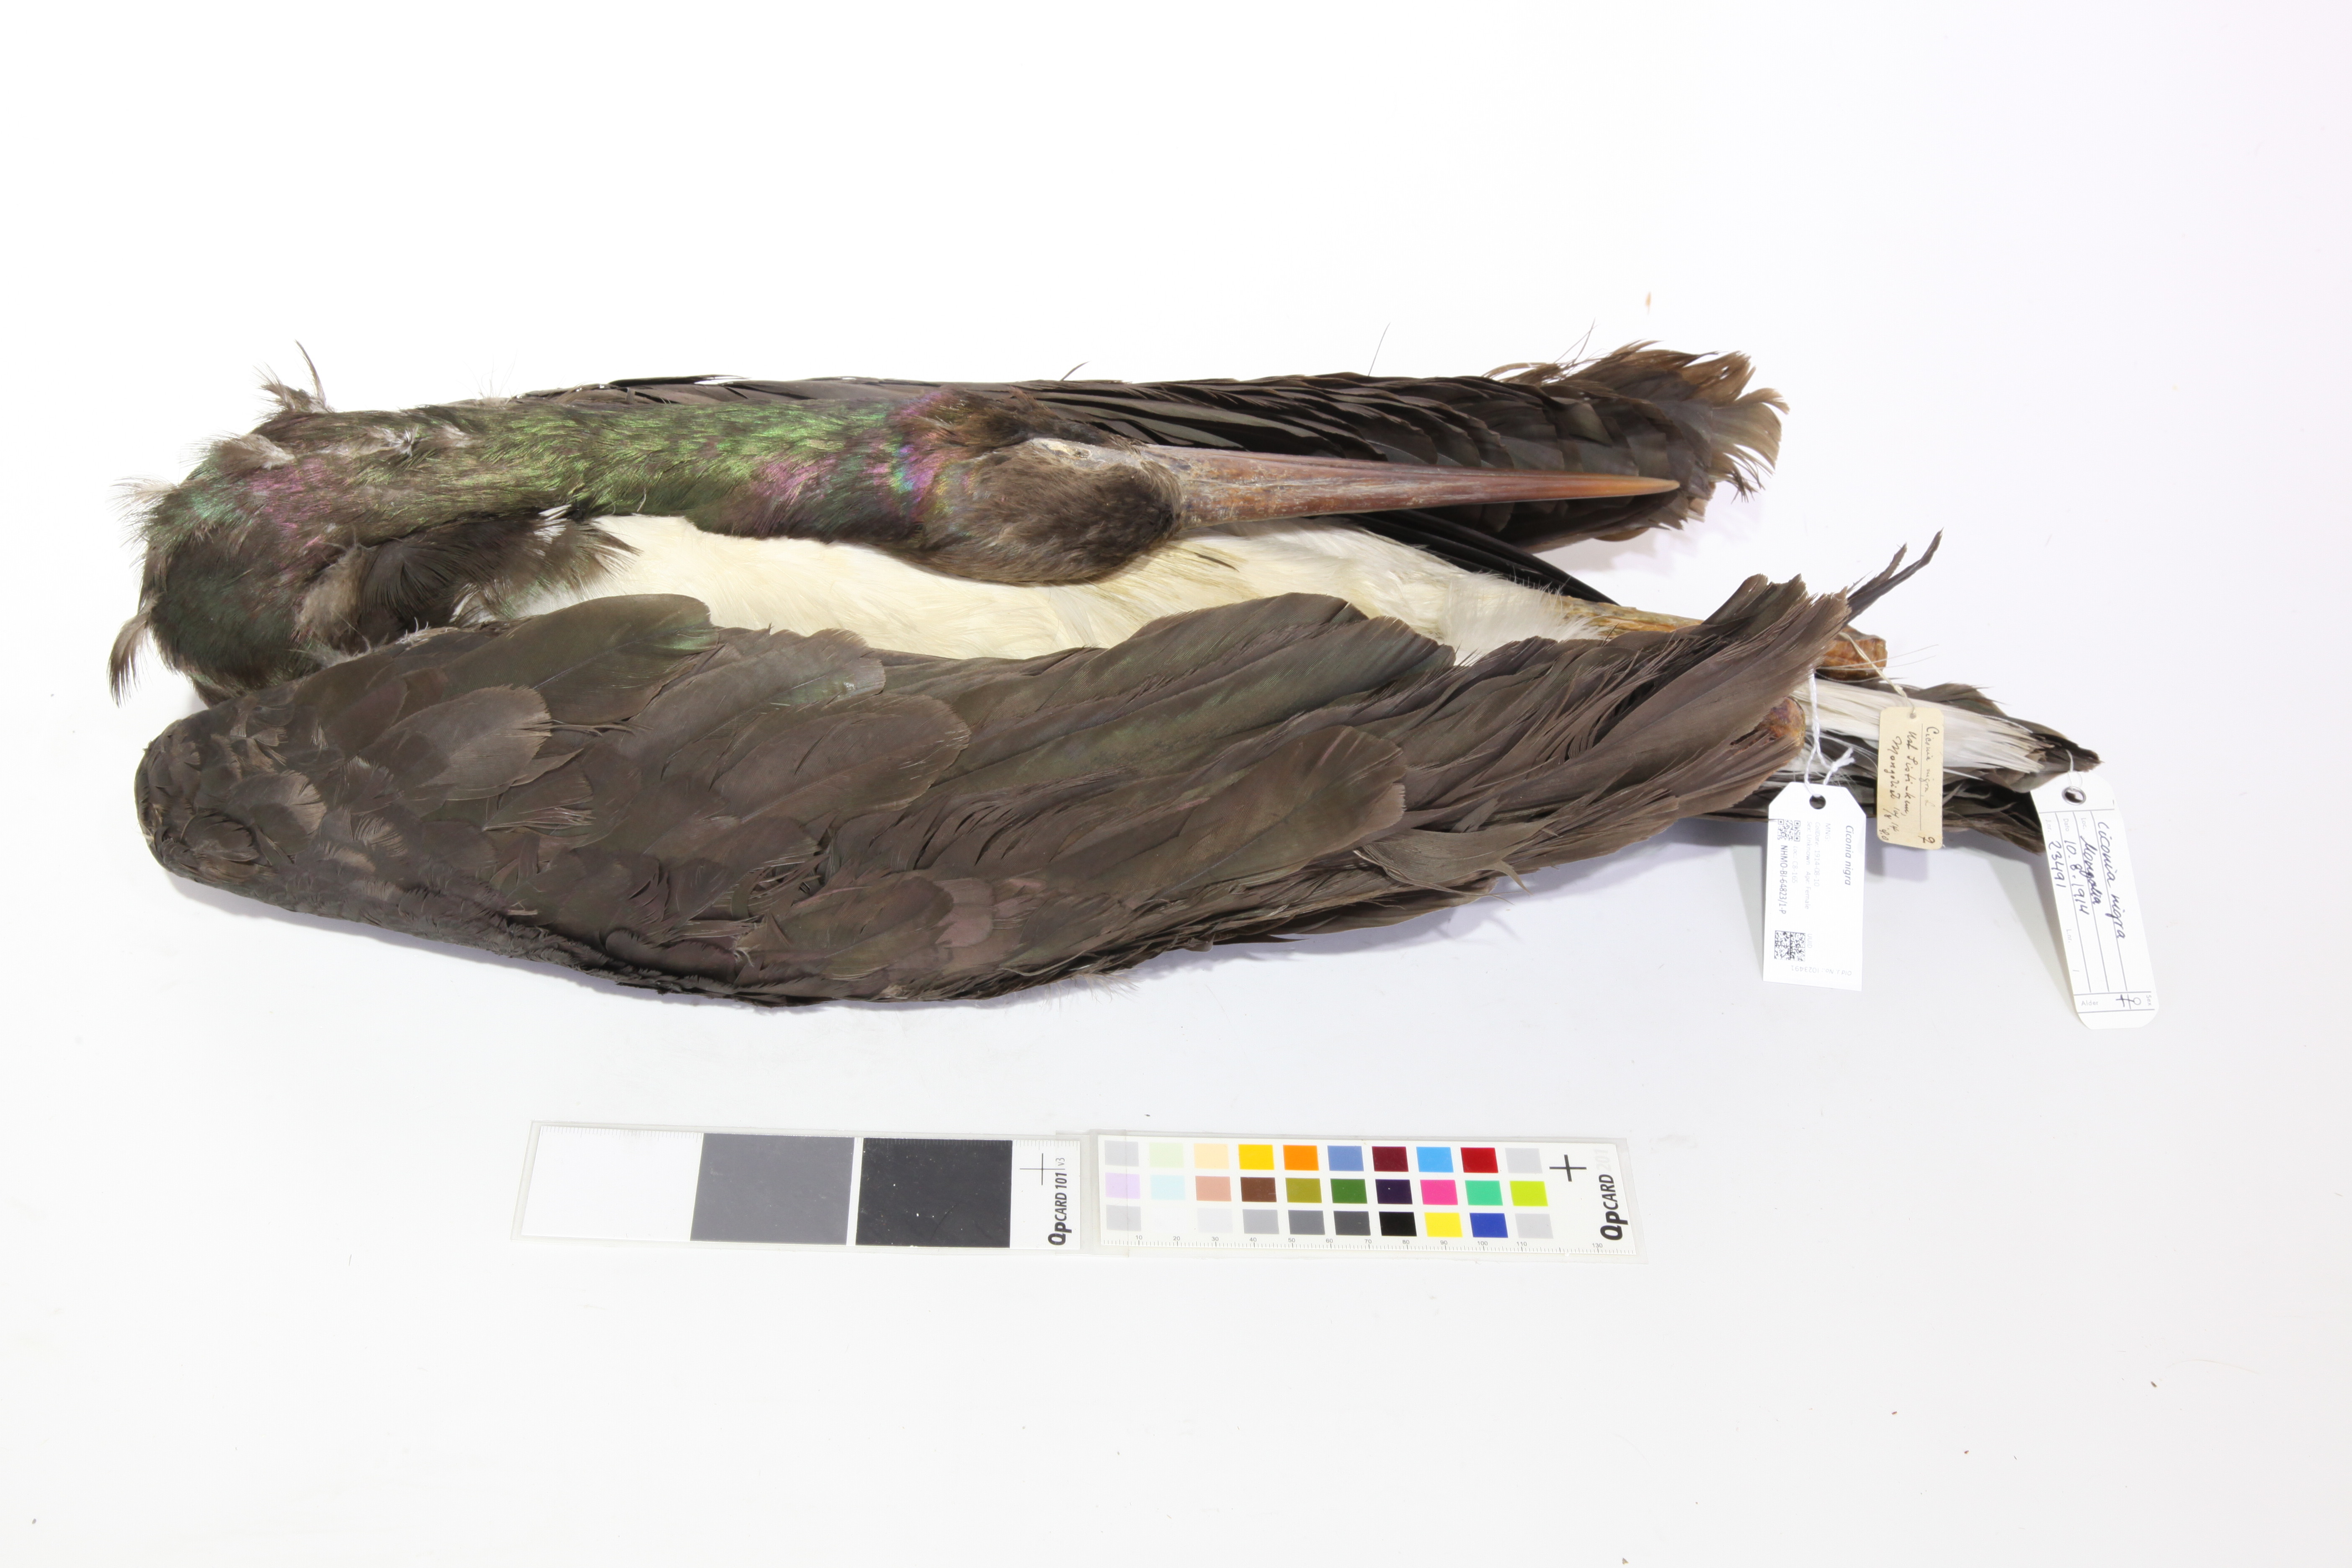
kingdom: Animalia
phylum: Chordata
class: Aves
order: Ciconiiformes
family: Ciconiidae
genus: Ciconia
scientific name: Ciconia nigra
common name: Black stork
